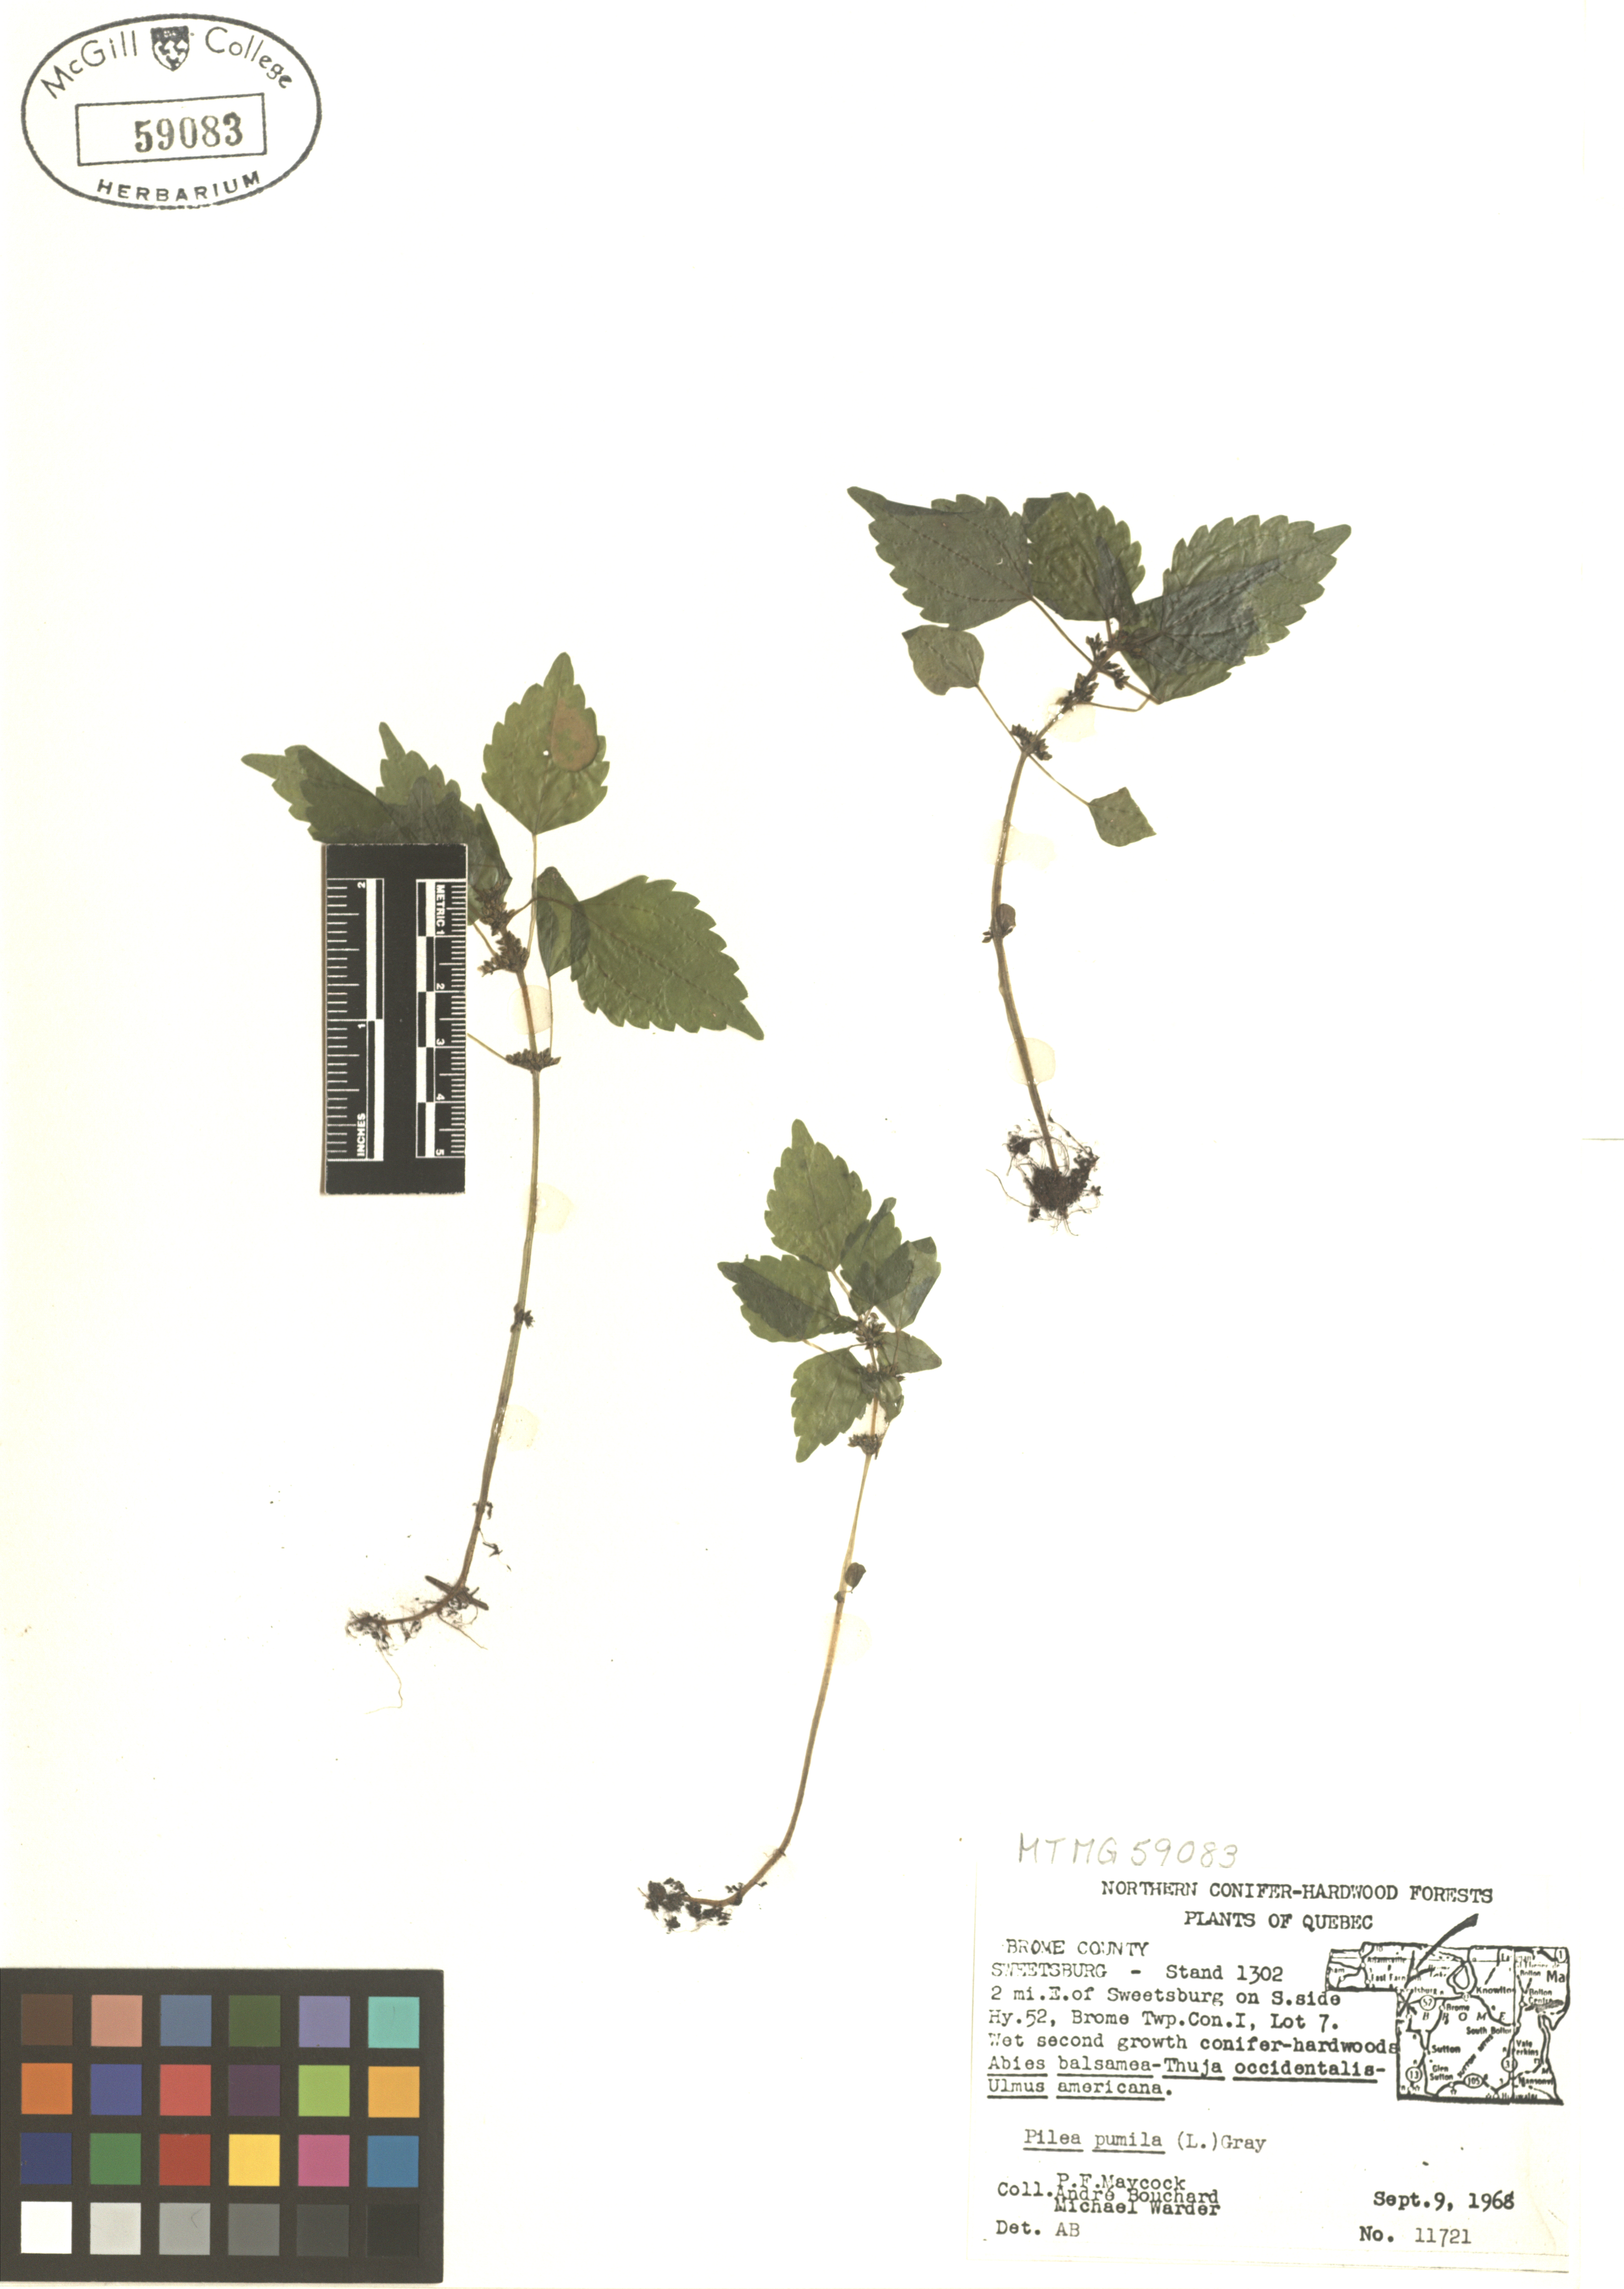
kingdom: Plantae
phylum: Tracheophyta
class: Magnoliopsida
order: Rosales
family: Urticaceae
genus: Pilea
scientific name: Pilea pumila
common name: Clearweed
